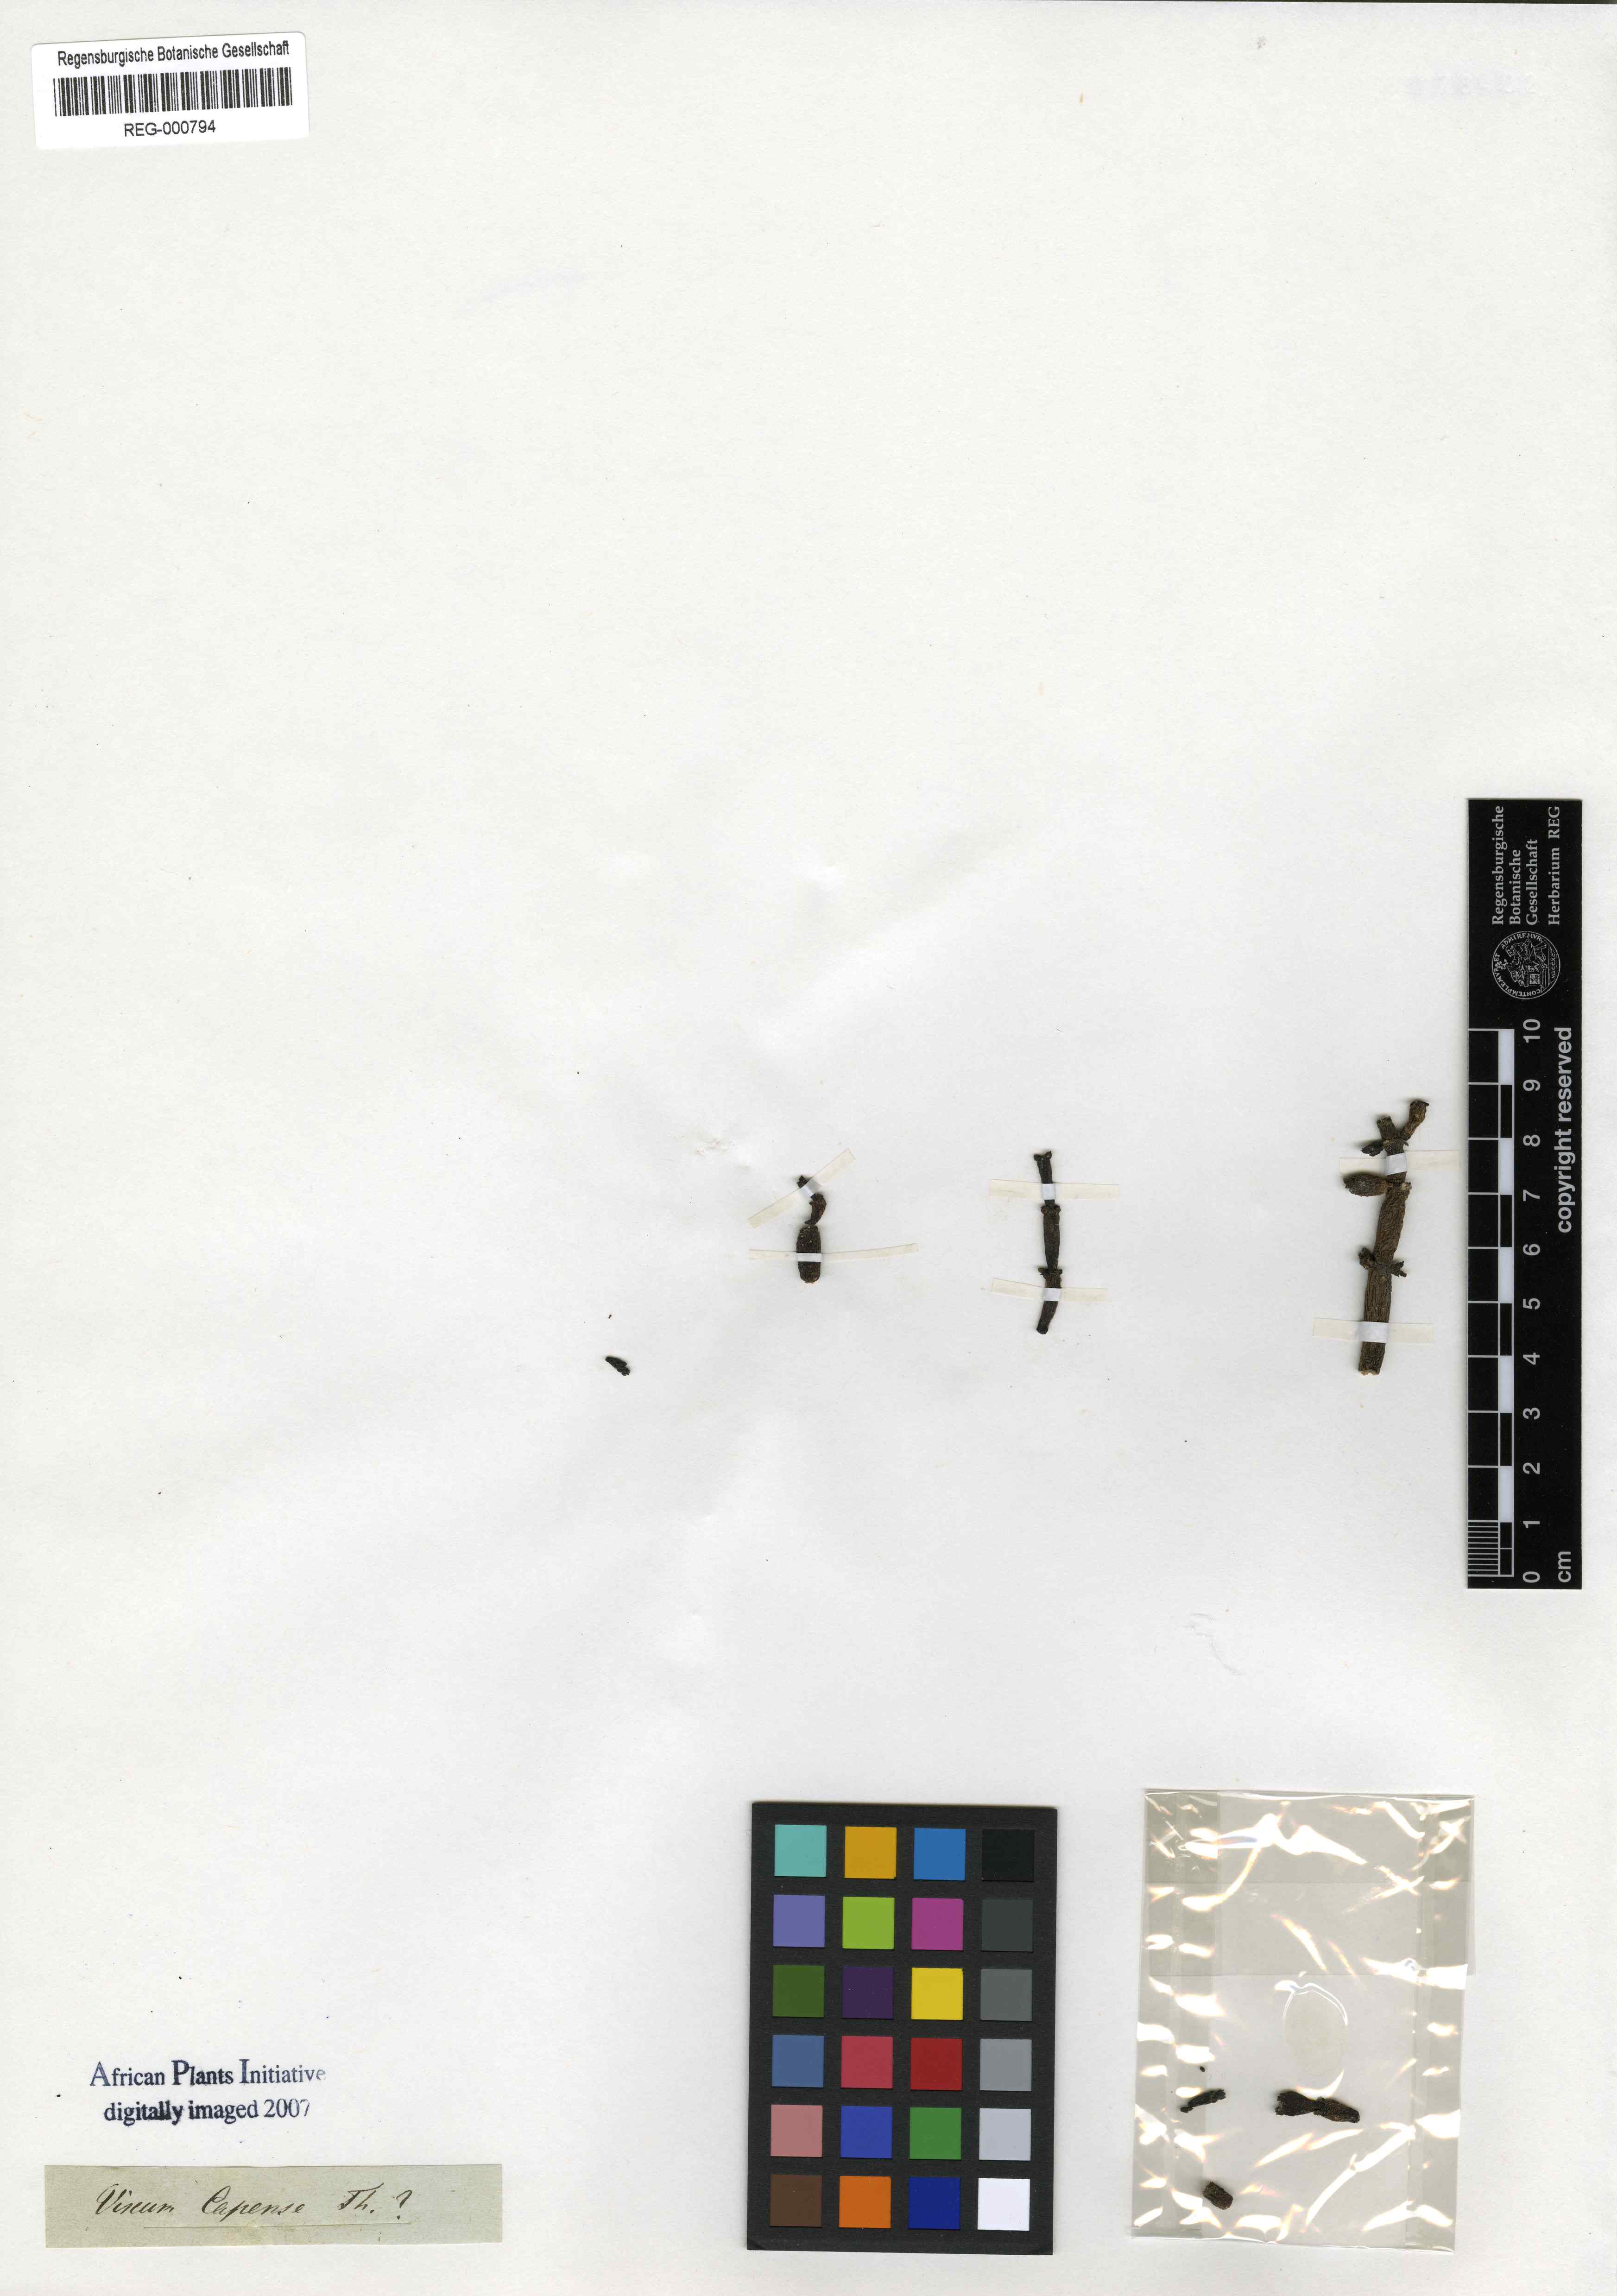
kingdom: Plantae
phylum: Tracheophyta
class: Magnoliopsida
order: Santalales
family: Viscaceae
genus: Viscum
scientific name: Viscum capense
